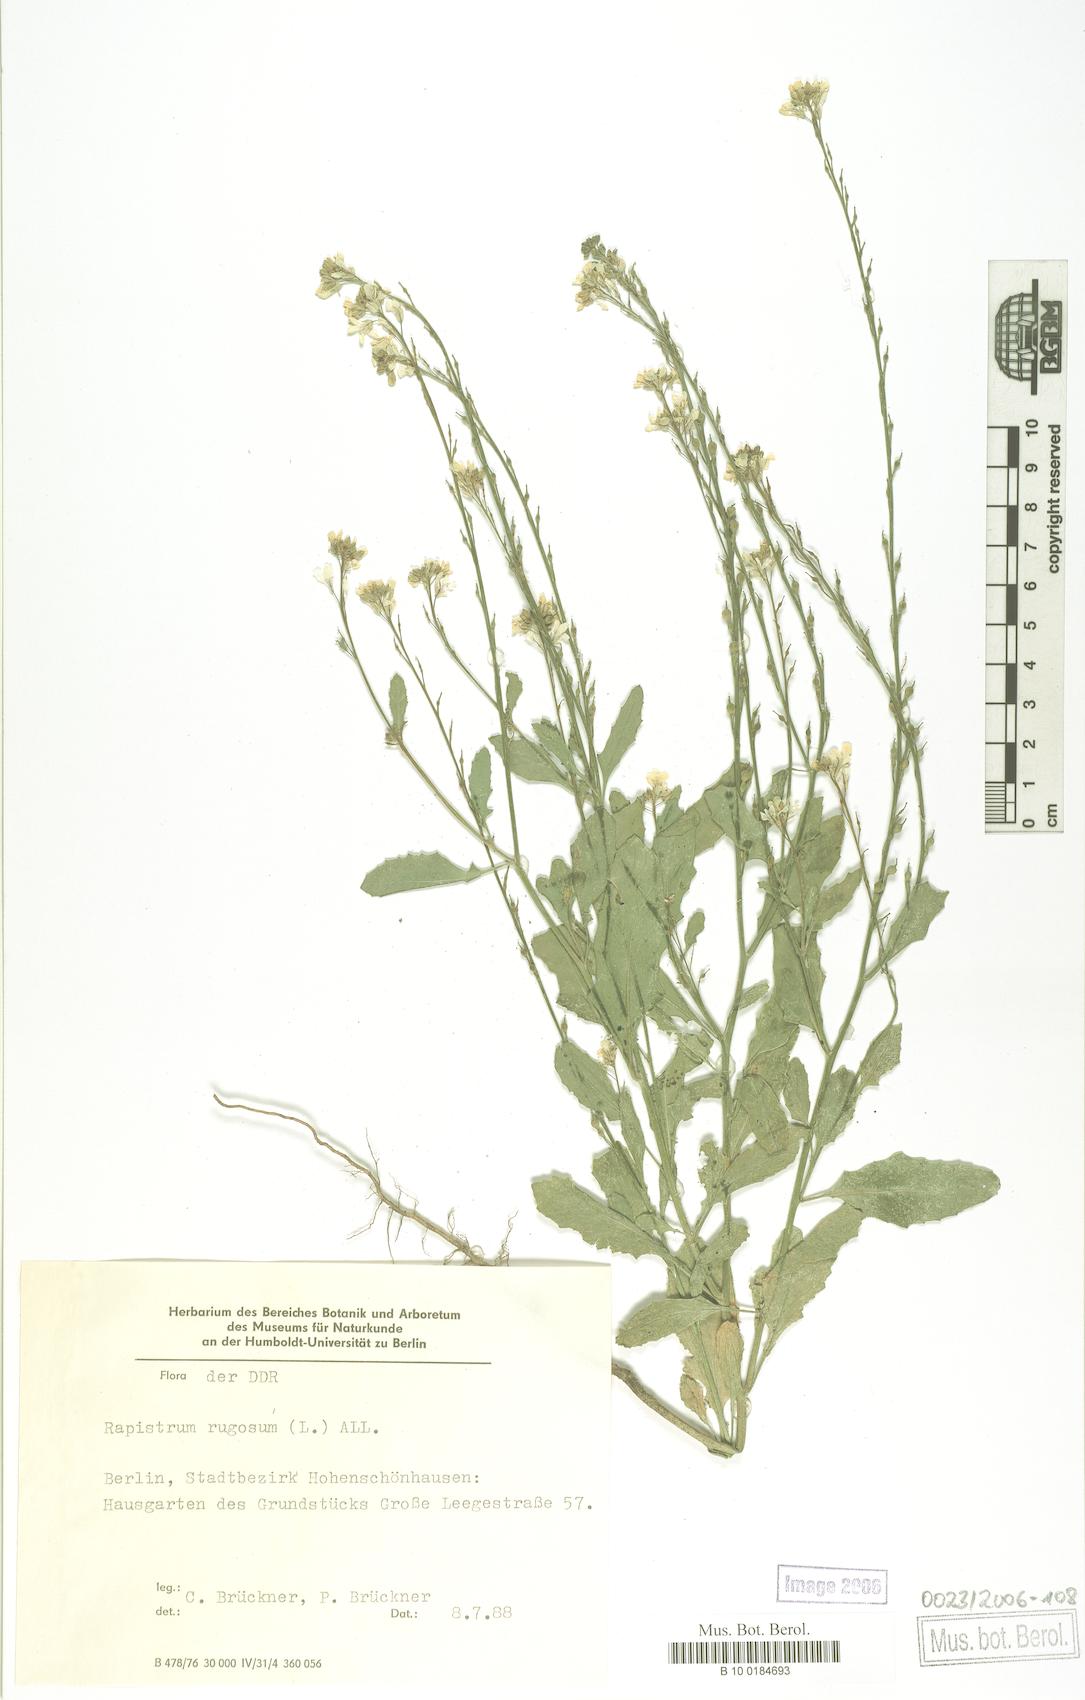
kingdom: Plantae
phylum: Tracheophyta
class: Magnoliopsida
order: Brassicales
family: Brassicaceae
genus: Rapistrum
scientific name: Rapistrum rugosum
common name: Annual bastardcabbage
